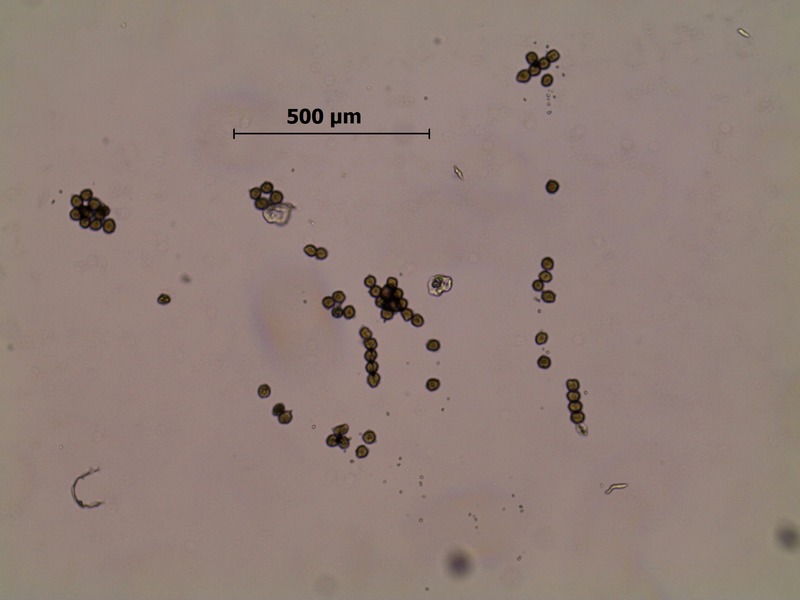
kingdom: Fungi
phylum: Basidiomycota
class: Pucciniomycetes
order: Pucciniales
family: Pucciniaceae
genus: Puccinia
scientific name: Puccinia dioicae
